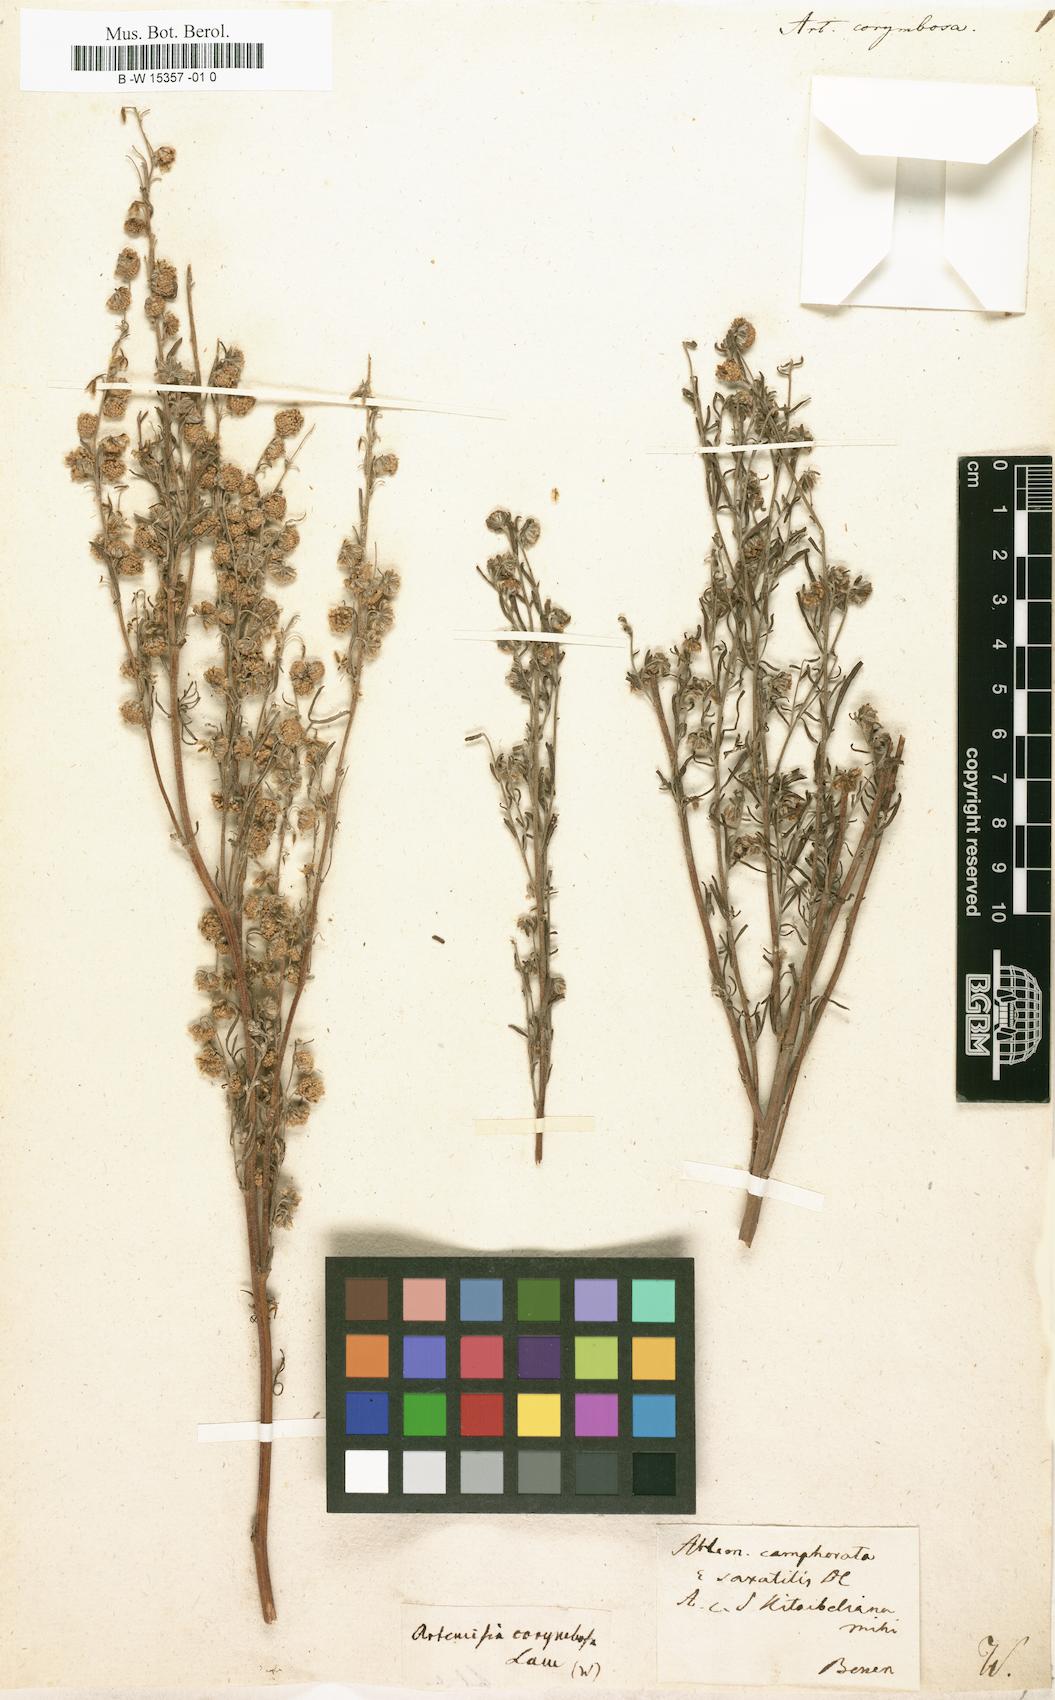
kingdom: Plantae
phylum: Tracheophyta
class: Magnoliopsida
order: Asterales
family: Asteraceae
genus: Artemisia
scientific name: Artemisia alba
